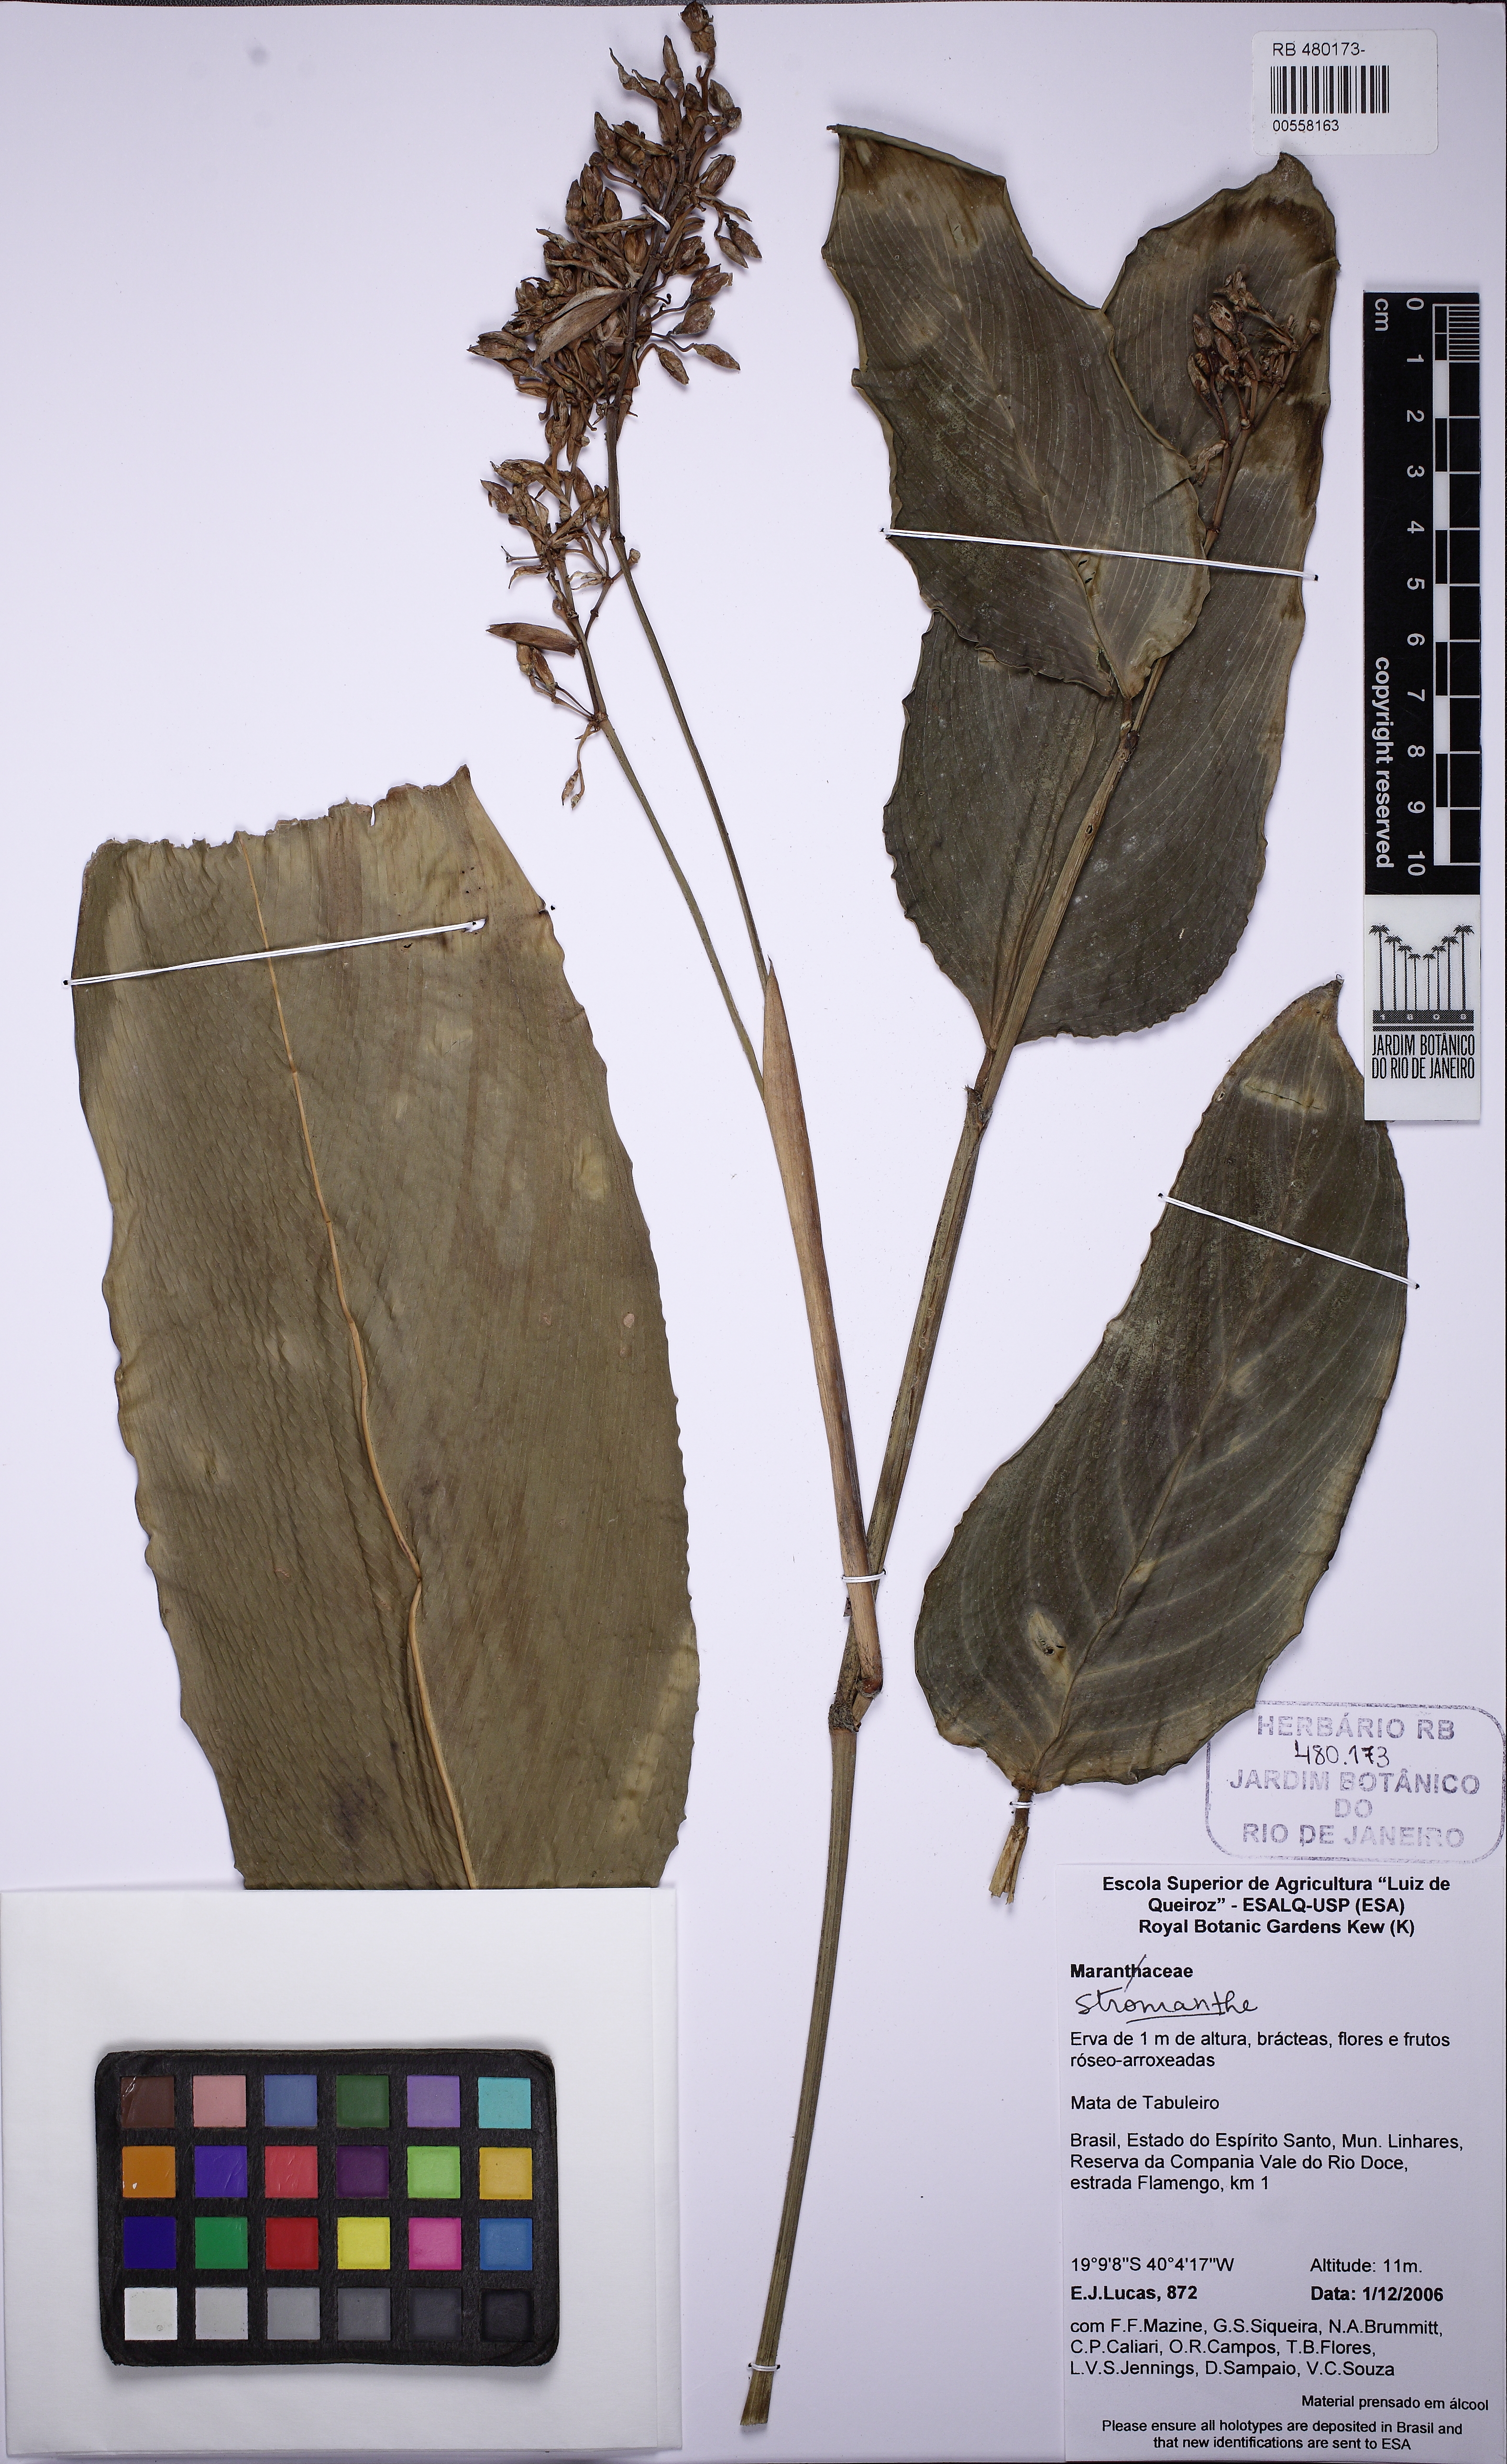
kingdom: Plantae
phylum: Tracheophyta
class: Liliopsida
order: Zingiberales
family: Marantaceae
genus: Stromanthe
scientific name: Stromanthe
